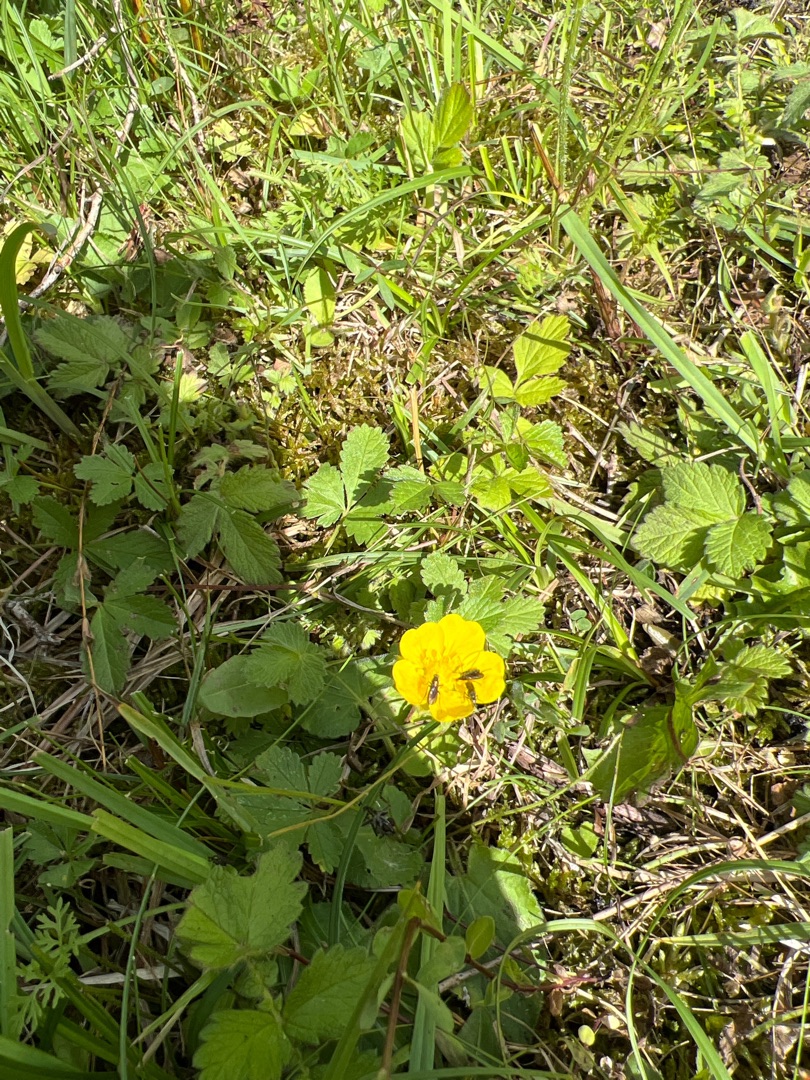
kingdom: Plantae
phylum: Tracheophyta
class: Magnoliopsida
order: Rosales
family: Rosaceae
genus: Potentilla
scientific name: Potentilla reptans
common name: Krybende potentil
